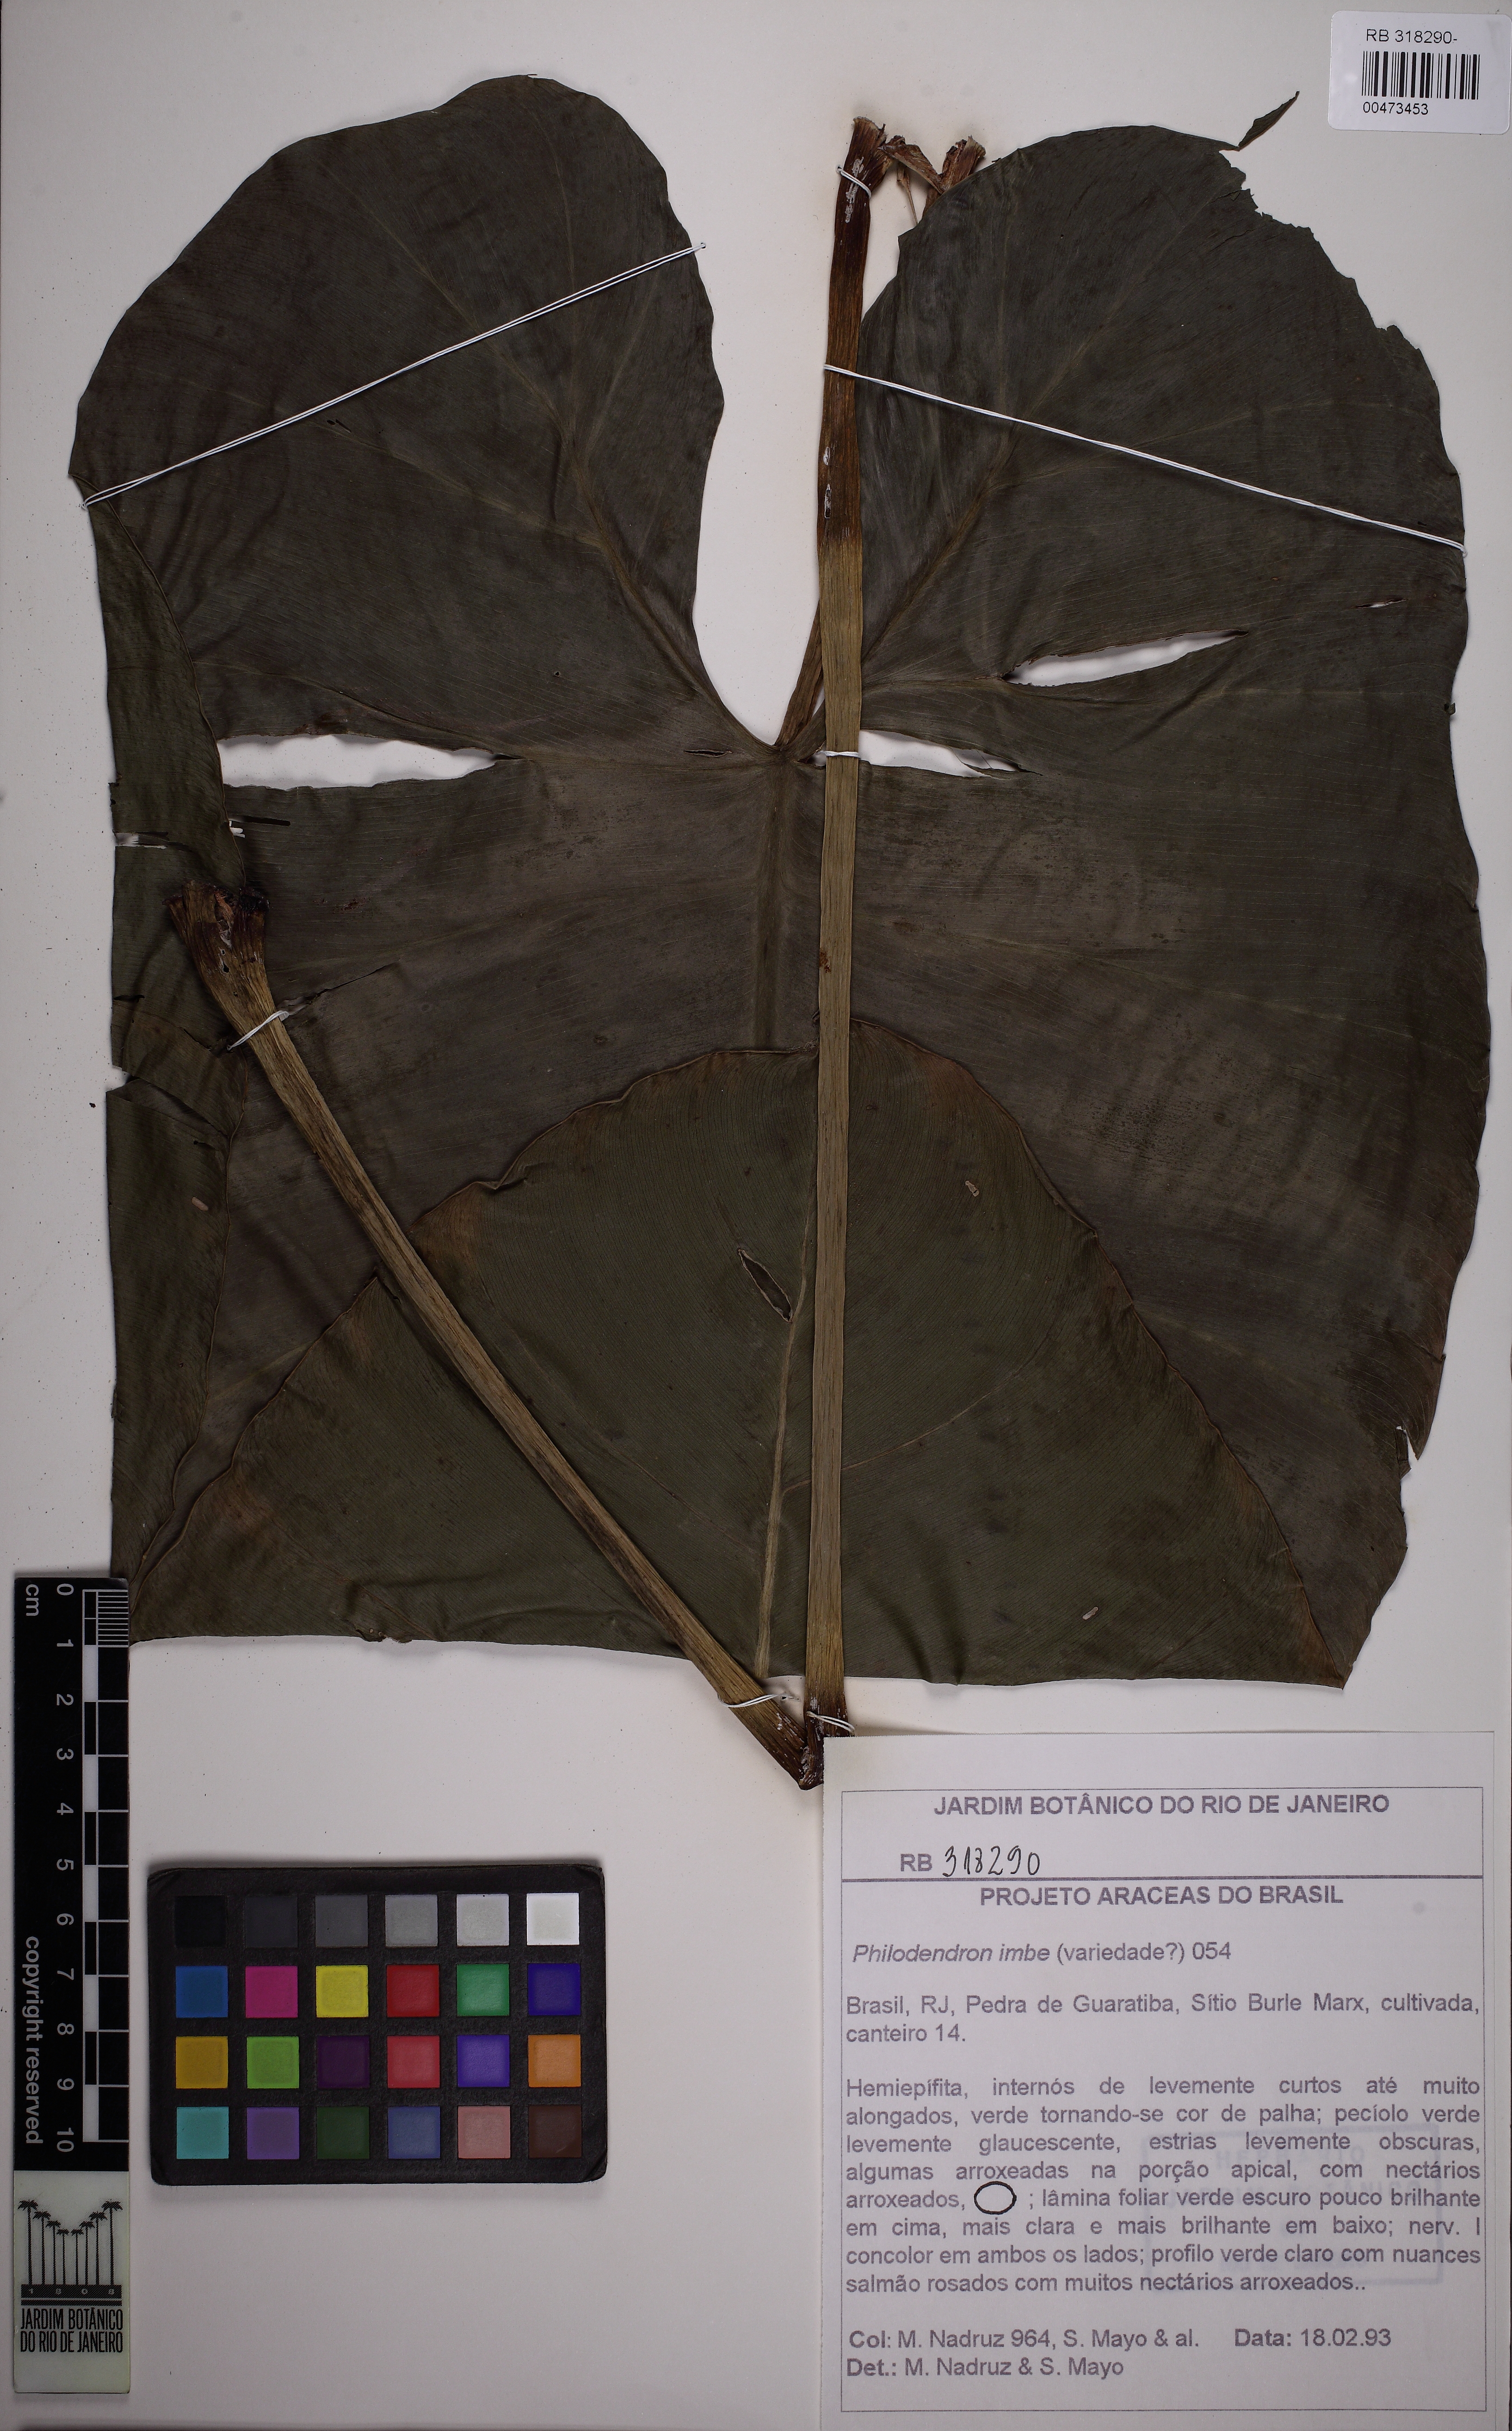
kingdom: Plantae
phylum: Tracheophyta
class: Liliopsida
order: Alismatales
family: Araceae
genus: Philodendron
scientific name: Philodendron imbe
